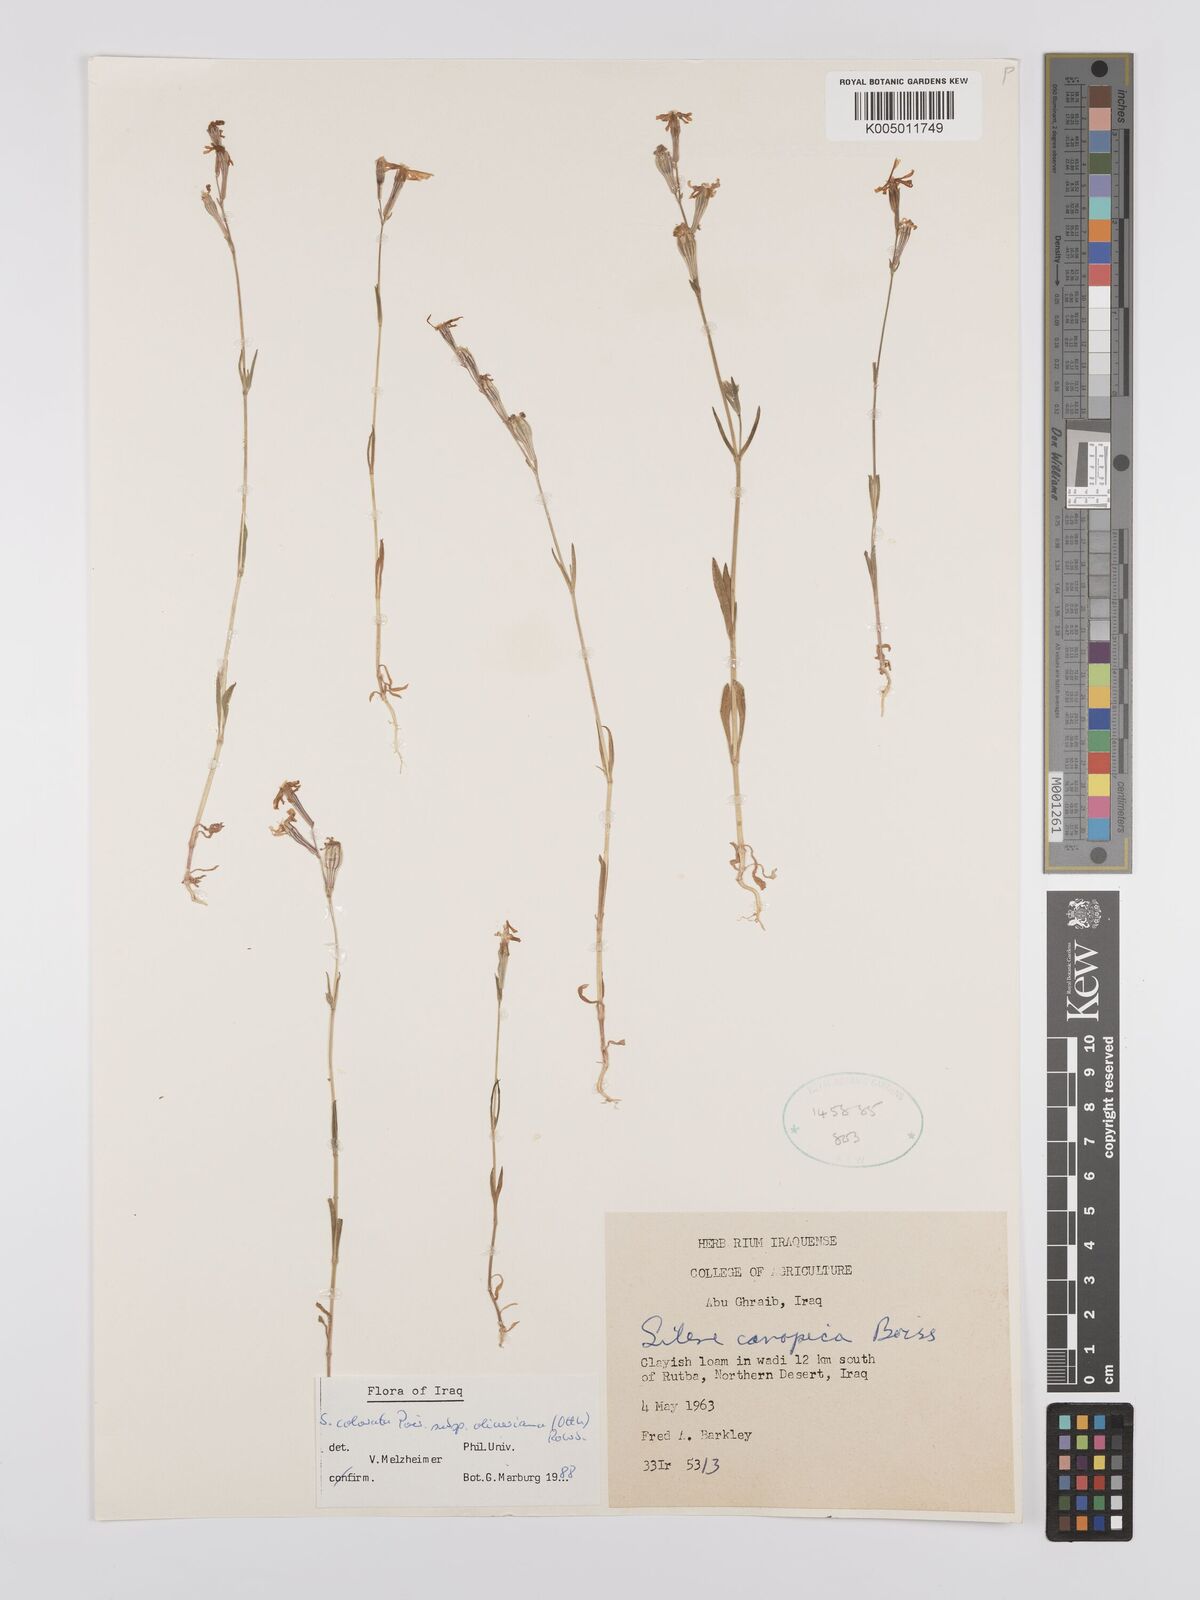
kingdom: Plantae
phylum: Tracheophyta
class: Magnoliopsida
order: Caryophyllales
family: Caryophyllaceae
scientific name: Caryophyllaceae
